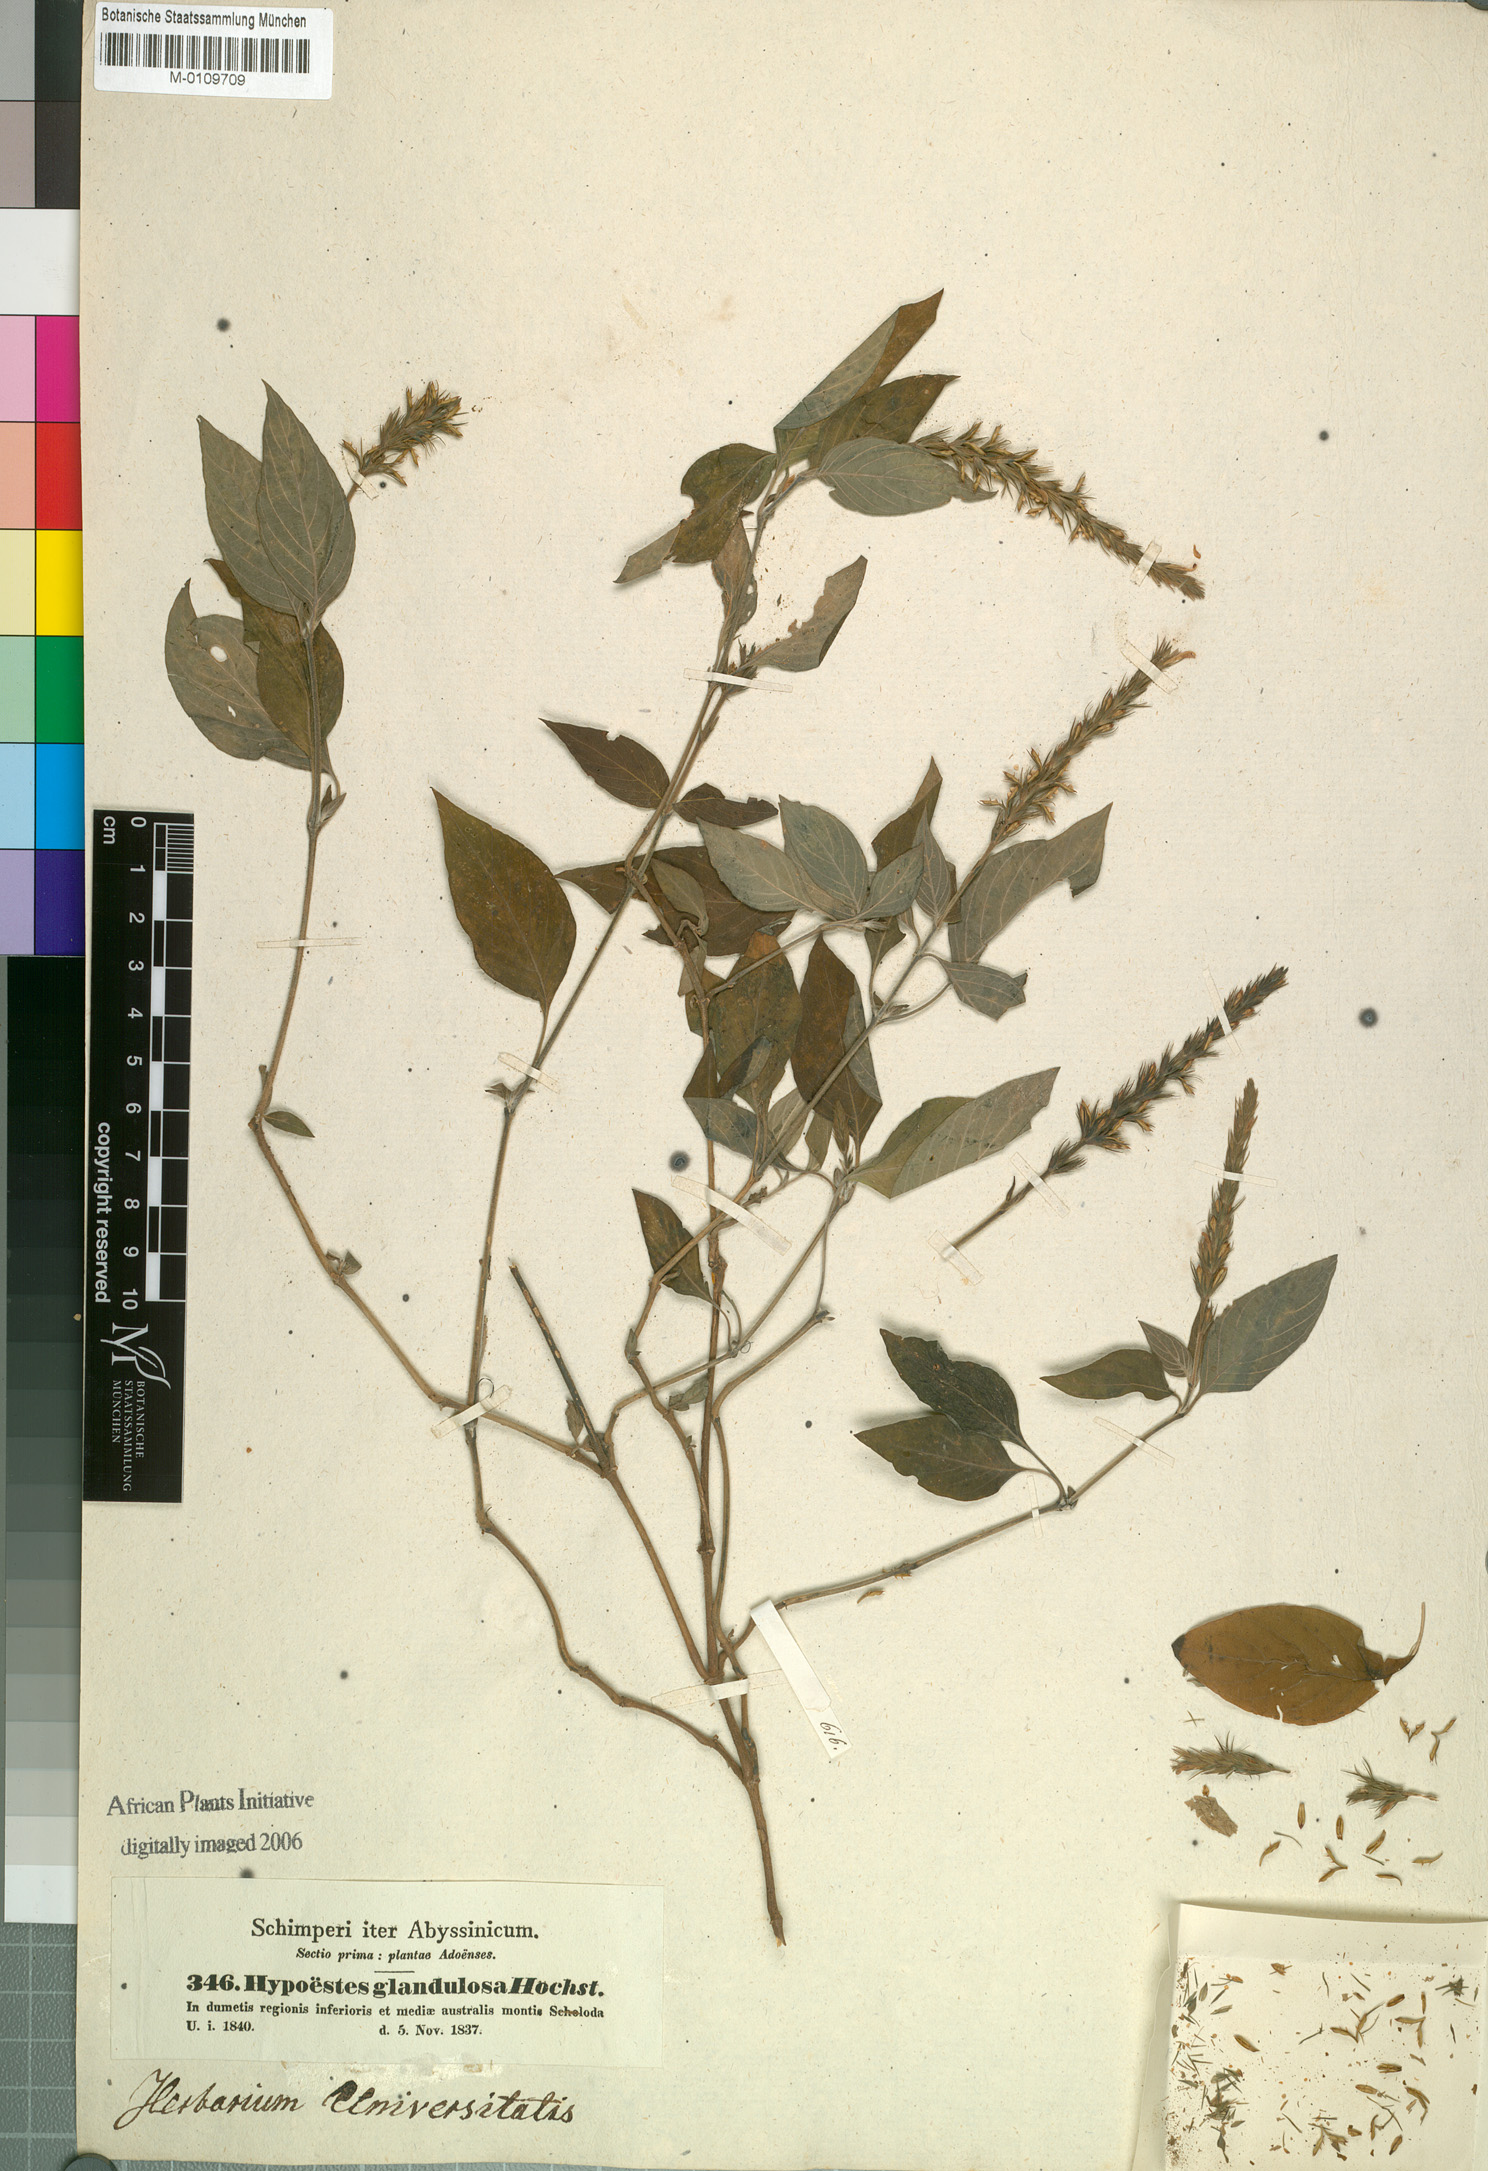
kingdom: Plantae
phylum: Tracheophyta
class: Magnoliopsida
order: Lamiales
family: Acanthaceae
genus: Monothecium
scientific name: Monothecium glandulosum
